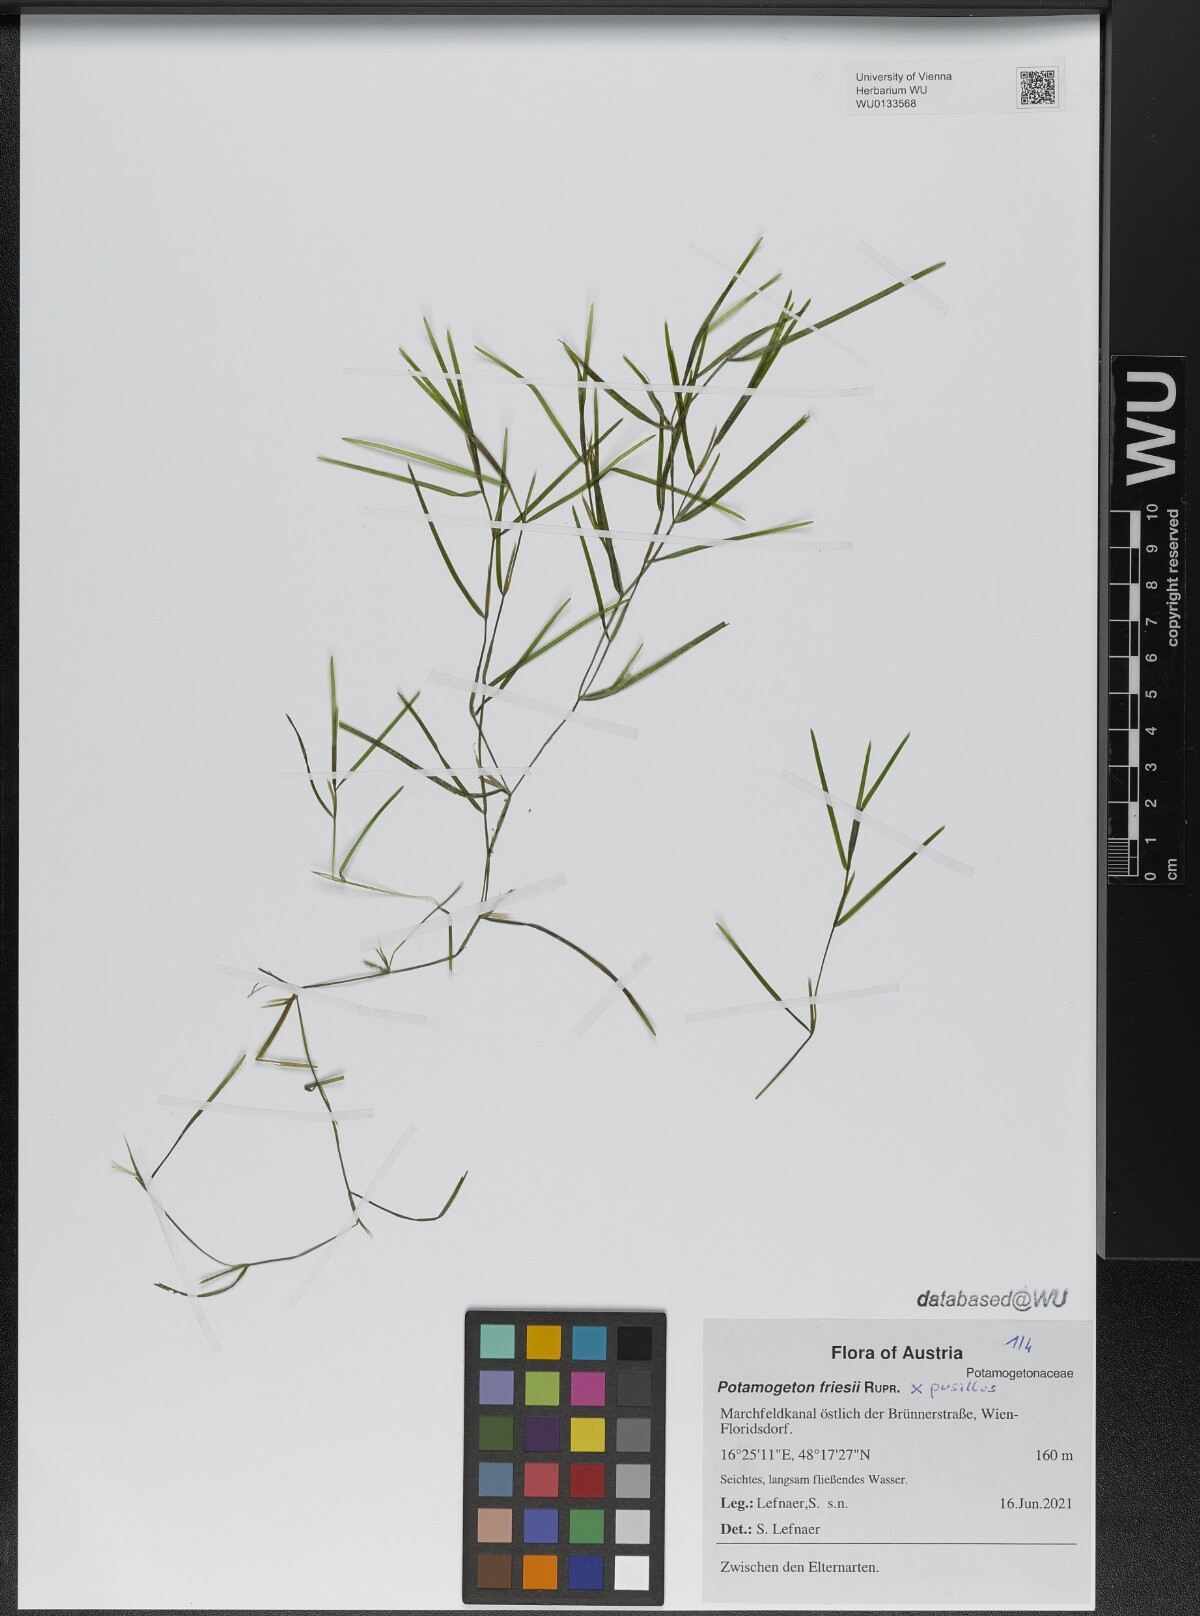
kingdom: Plantae
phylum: Tracheophyta
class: Liliopsida
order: Alismatales
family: Potamogetonaceae
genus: Potamogeton
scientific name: Potamogeton friesii
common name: Flat-stalked pondweed
